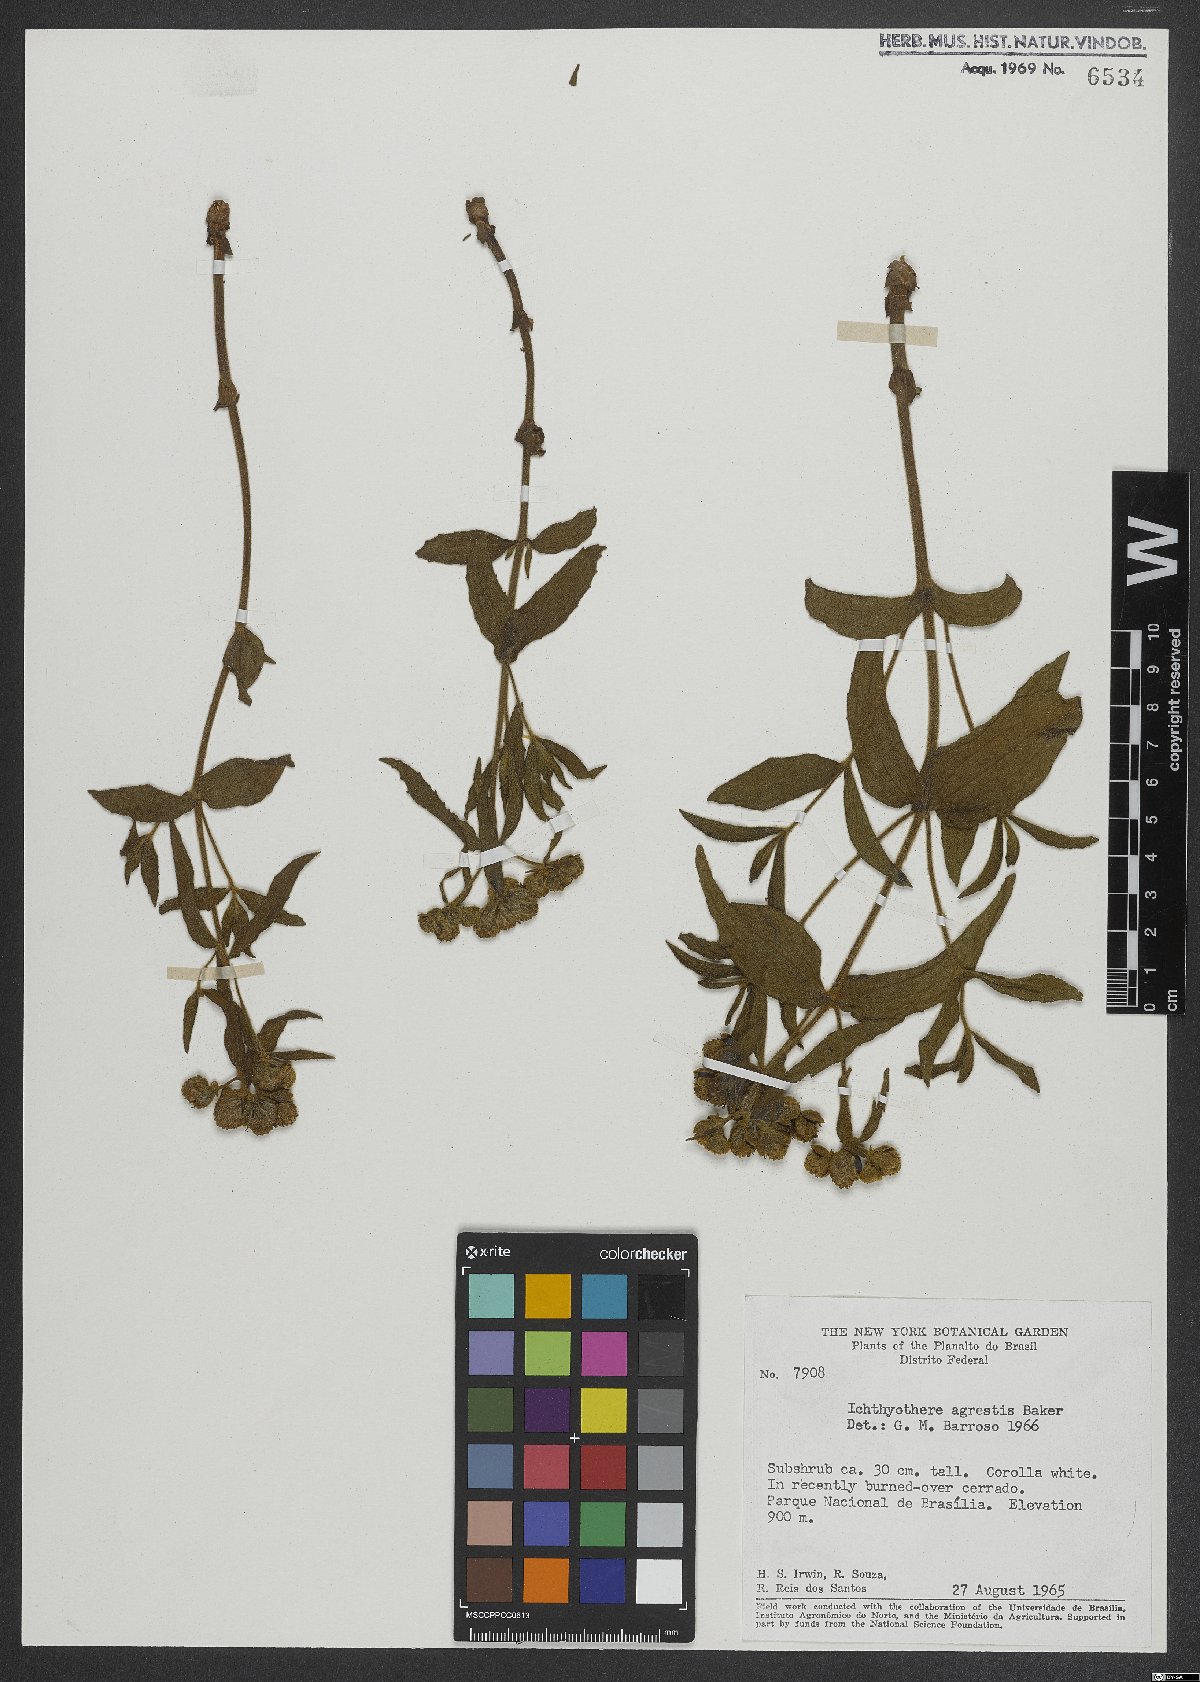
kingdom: Plantae
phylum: Tracheophyta
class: Magnoliopsida
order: Asterales
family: Asteraceae
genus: Ichthyothere
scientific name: Ichthyothere integrifolia
